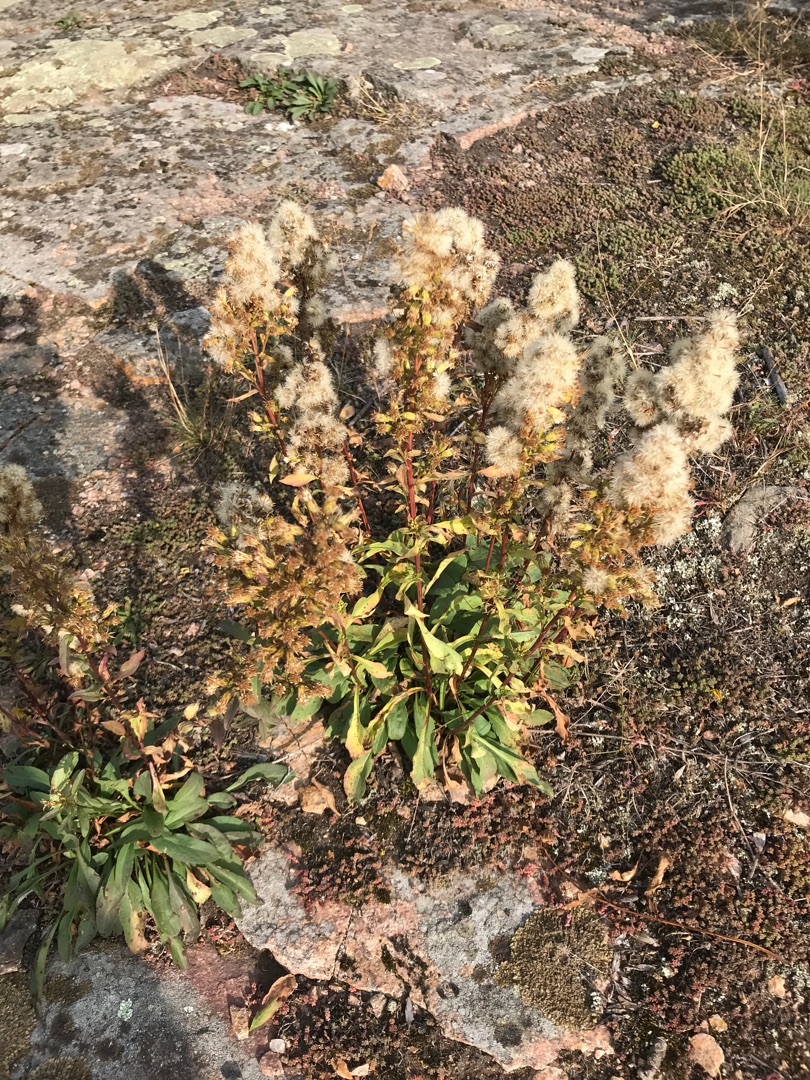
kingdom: Plantae
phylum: Tracheophyta
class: Magnoliopsida
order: Asterales
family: Asteraceae
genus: Solidago
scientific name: Solidago virgaurea
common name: Almindelig gyldenris
